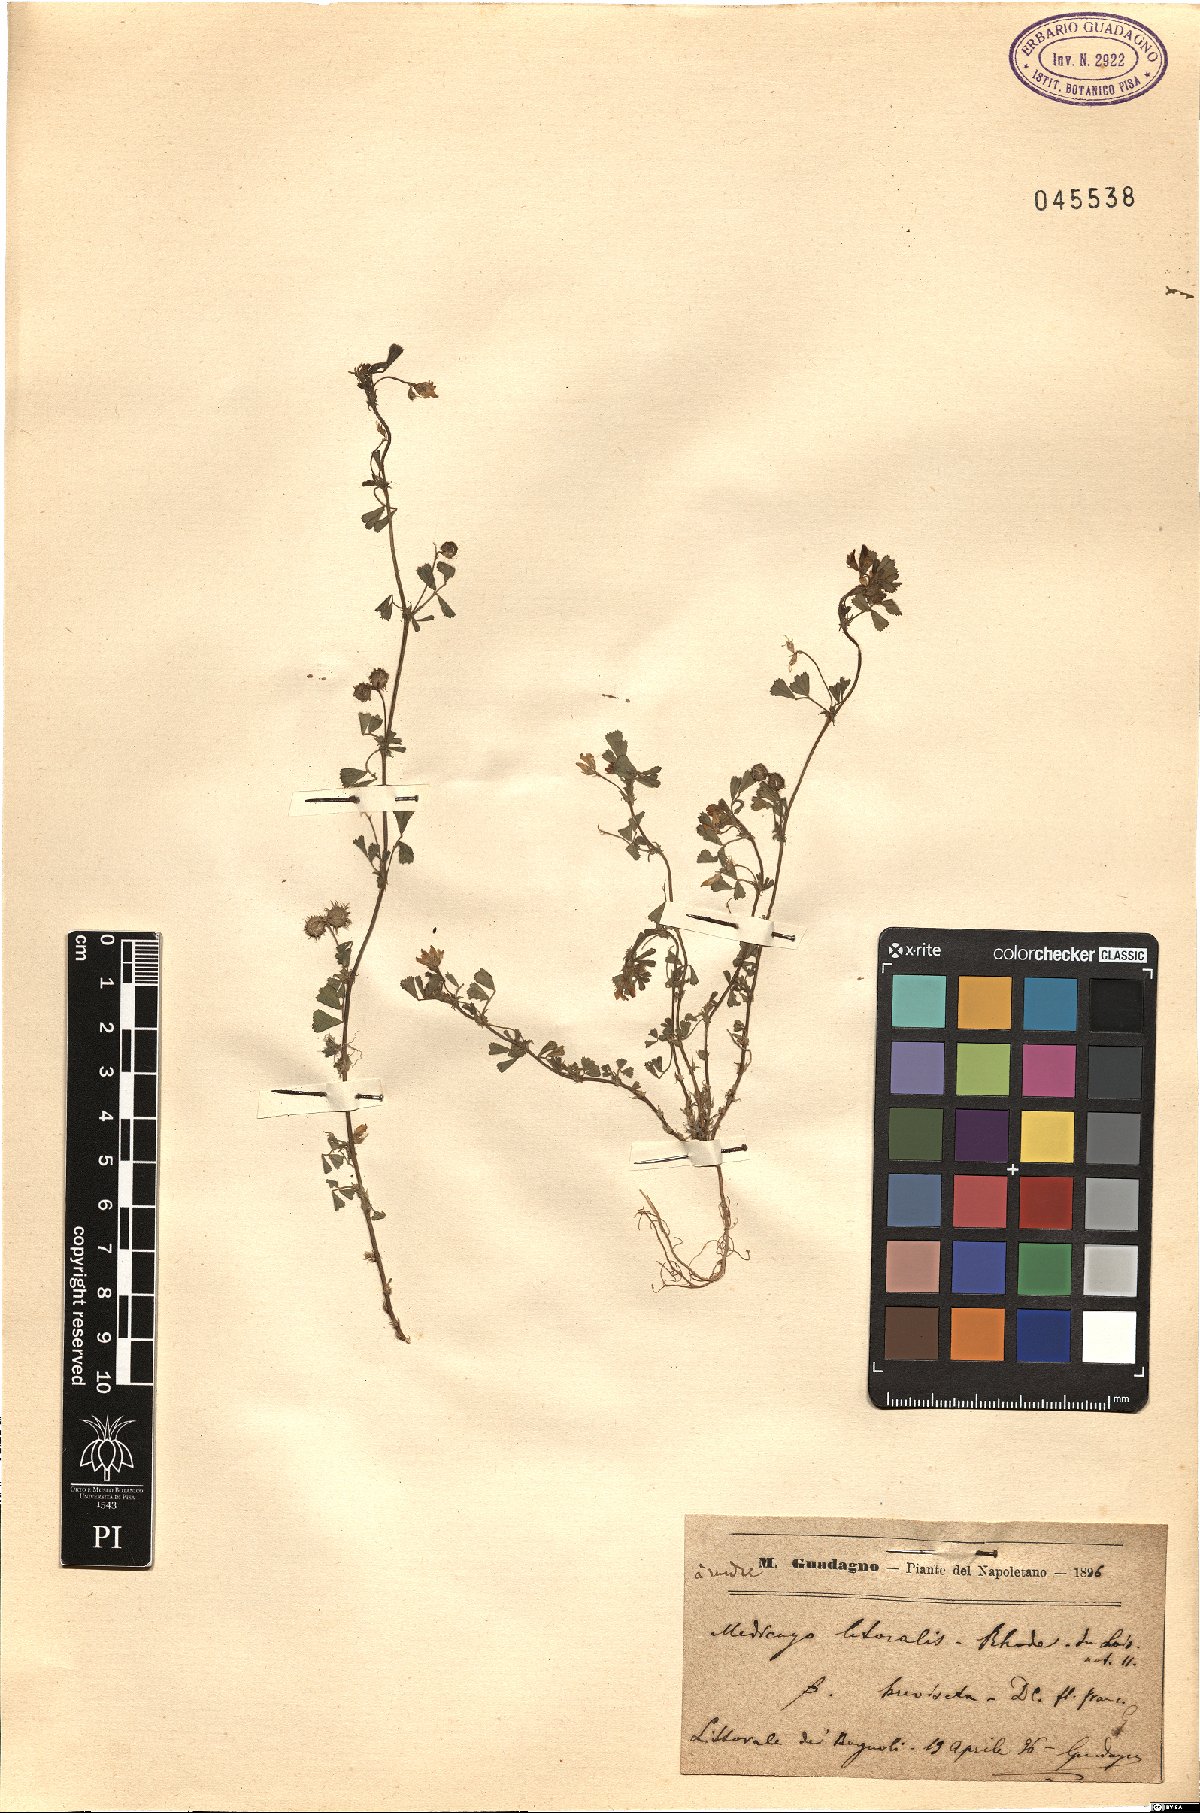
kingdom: Plantae
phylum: Tracheophyta
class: Magnoliopsida
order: Fabales
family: Fabaceae
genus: Medicago
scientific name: Medicago littoralis
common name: Shore medick
